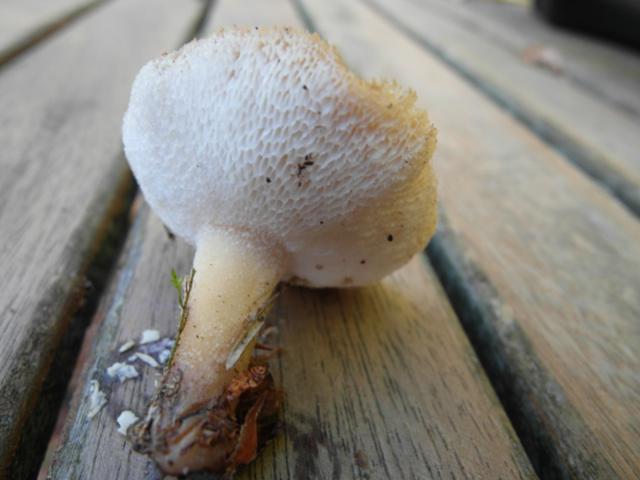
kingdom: Fungi
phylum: Basidiomycota
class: Agaricomycetes
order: Polyporales
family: Polyporaceae
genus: Polyporus
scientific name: Polyporus tuberaster
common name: knoldet stilkporesvamp
